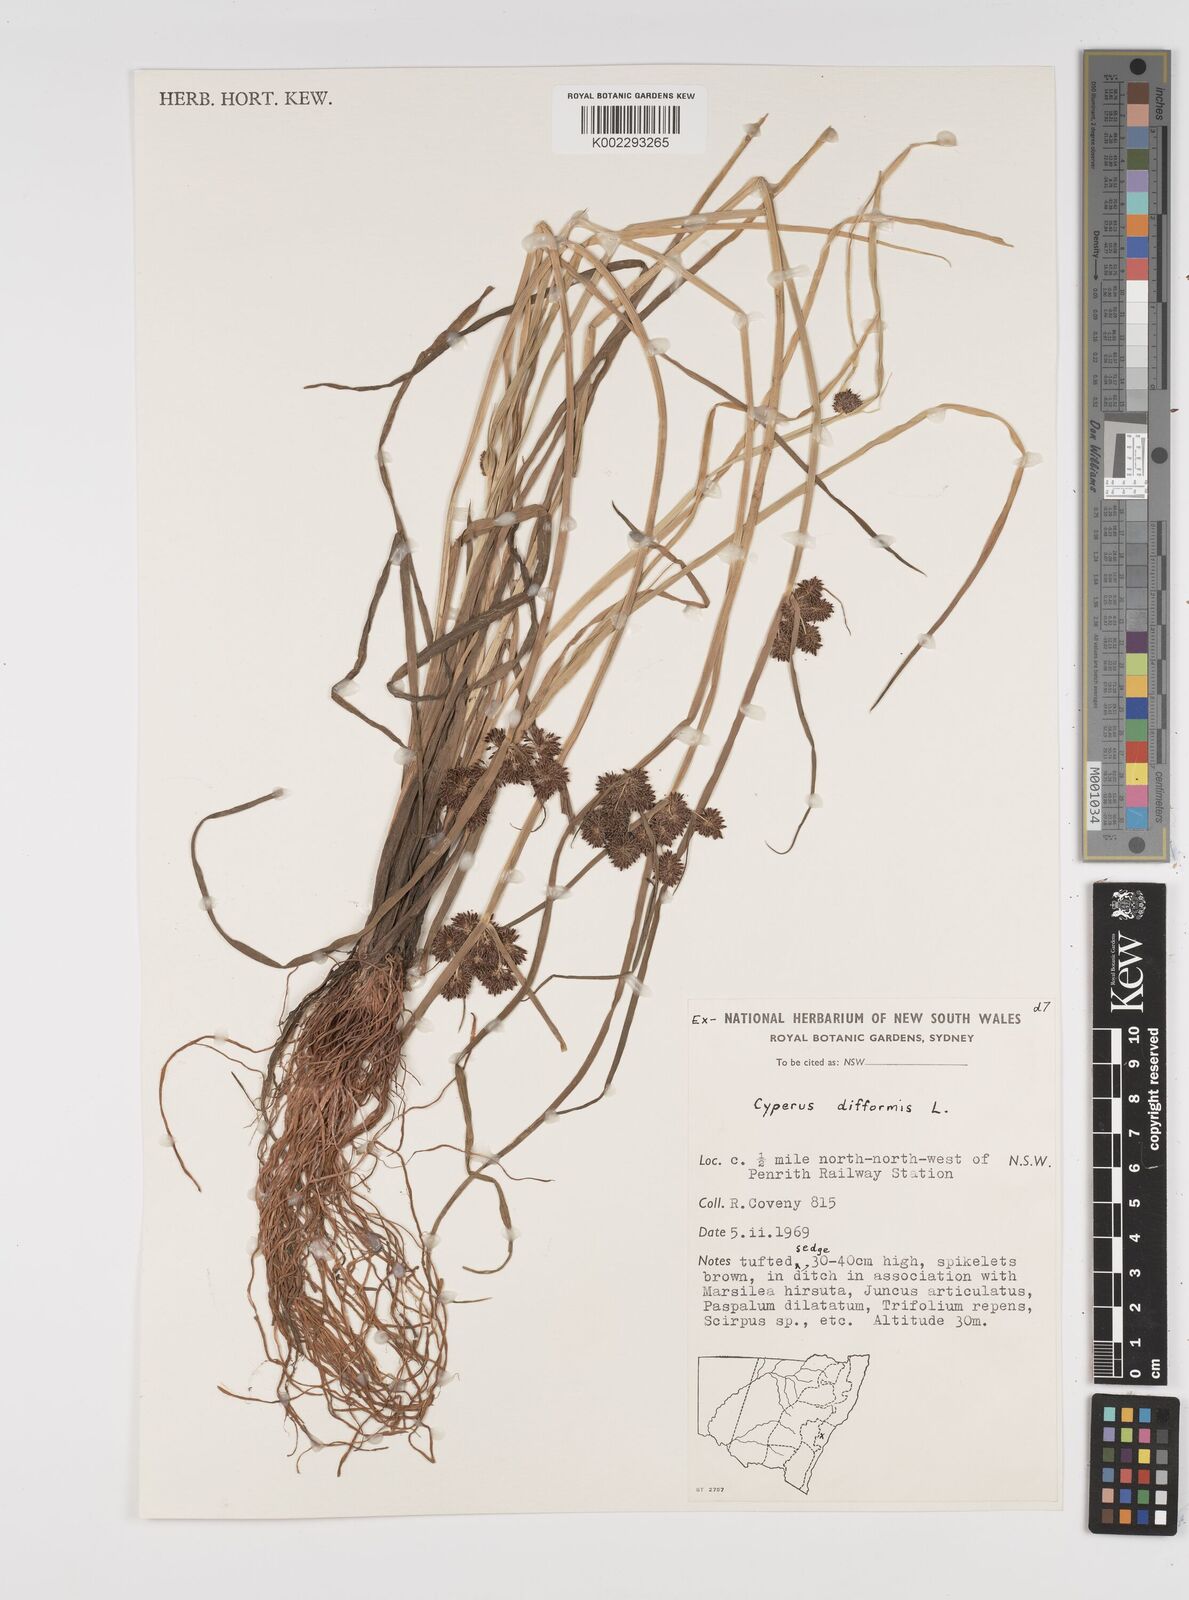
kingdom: Plantae
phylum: Tracheophyta
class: Liliopsida
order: Poales
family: Cyperaceae
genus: Cyperus
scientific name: Cyperus difformis
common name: Variable flatsedge
